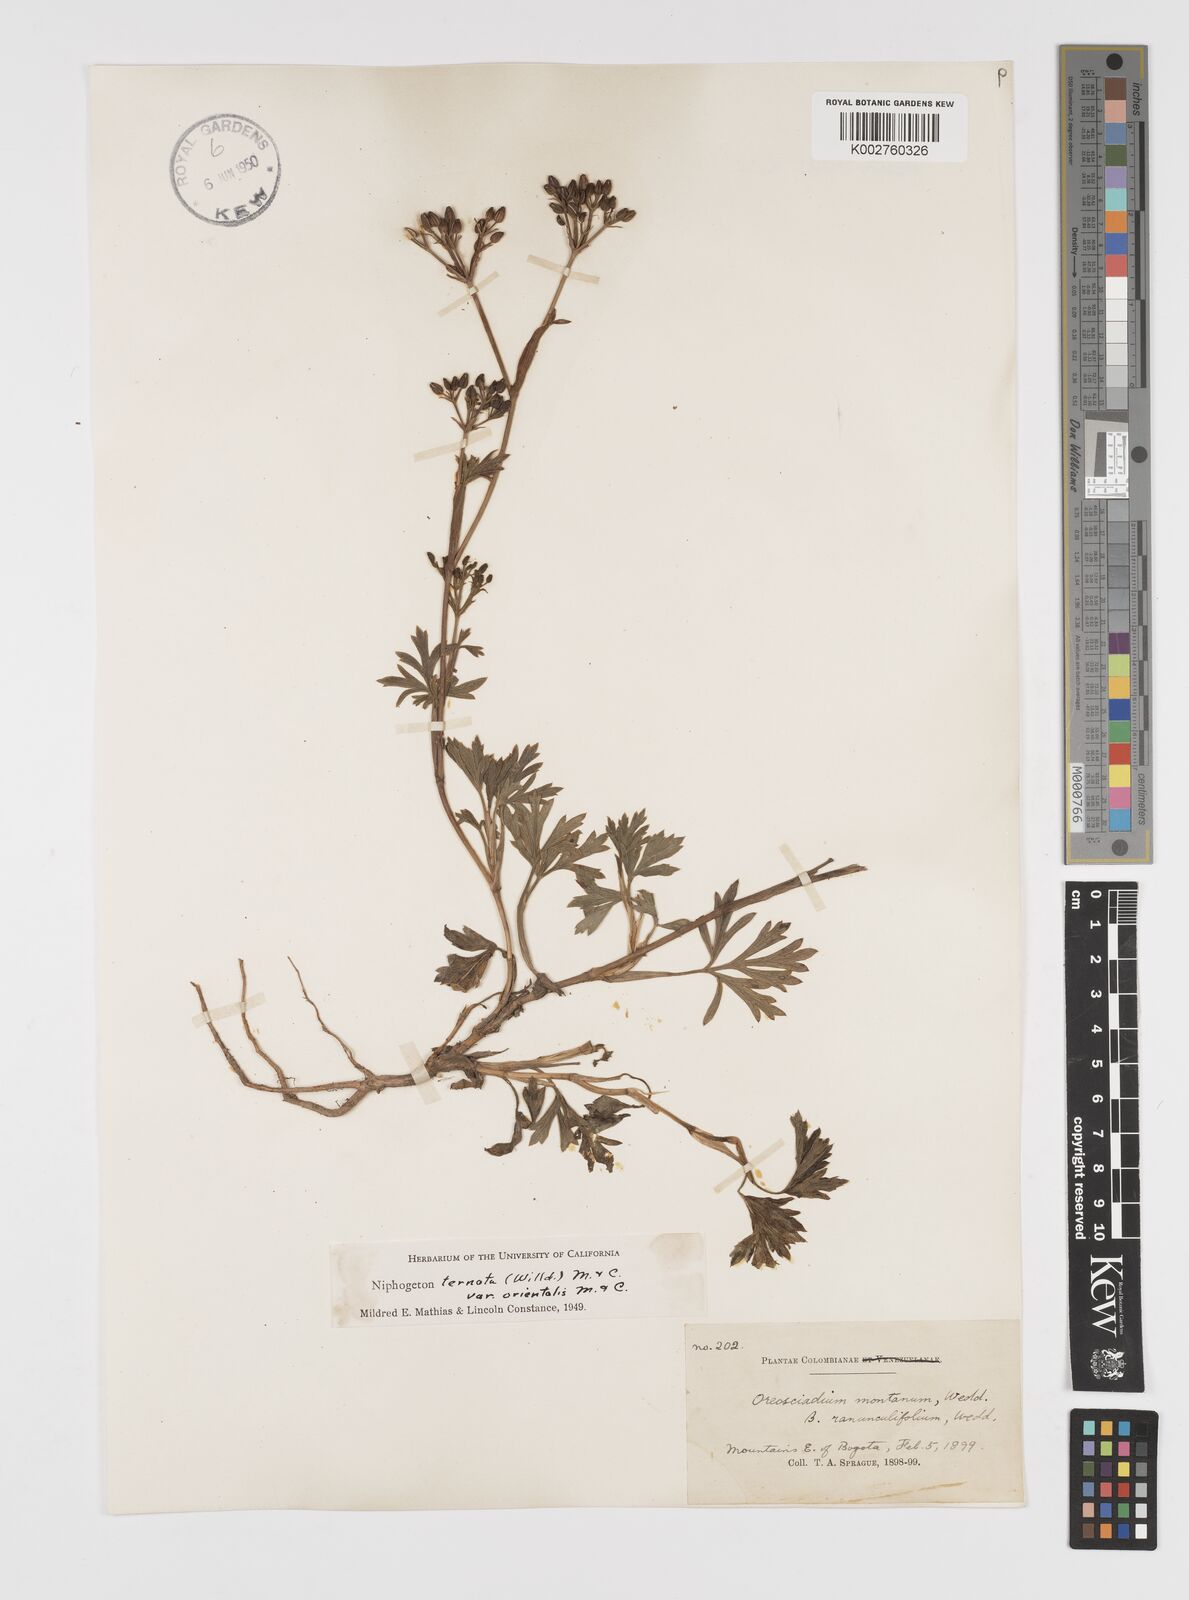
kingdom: Plantae
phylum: Tracheophyta
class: Magnoliopsida
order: Apiales
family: Apiaceae
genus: Niphogeton
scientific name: Niphogeton ternata
